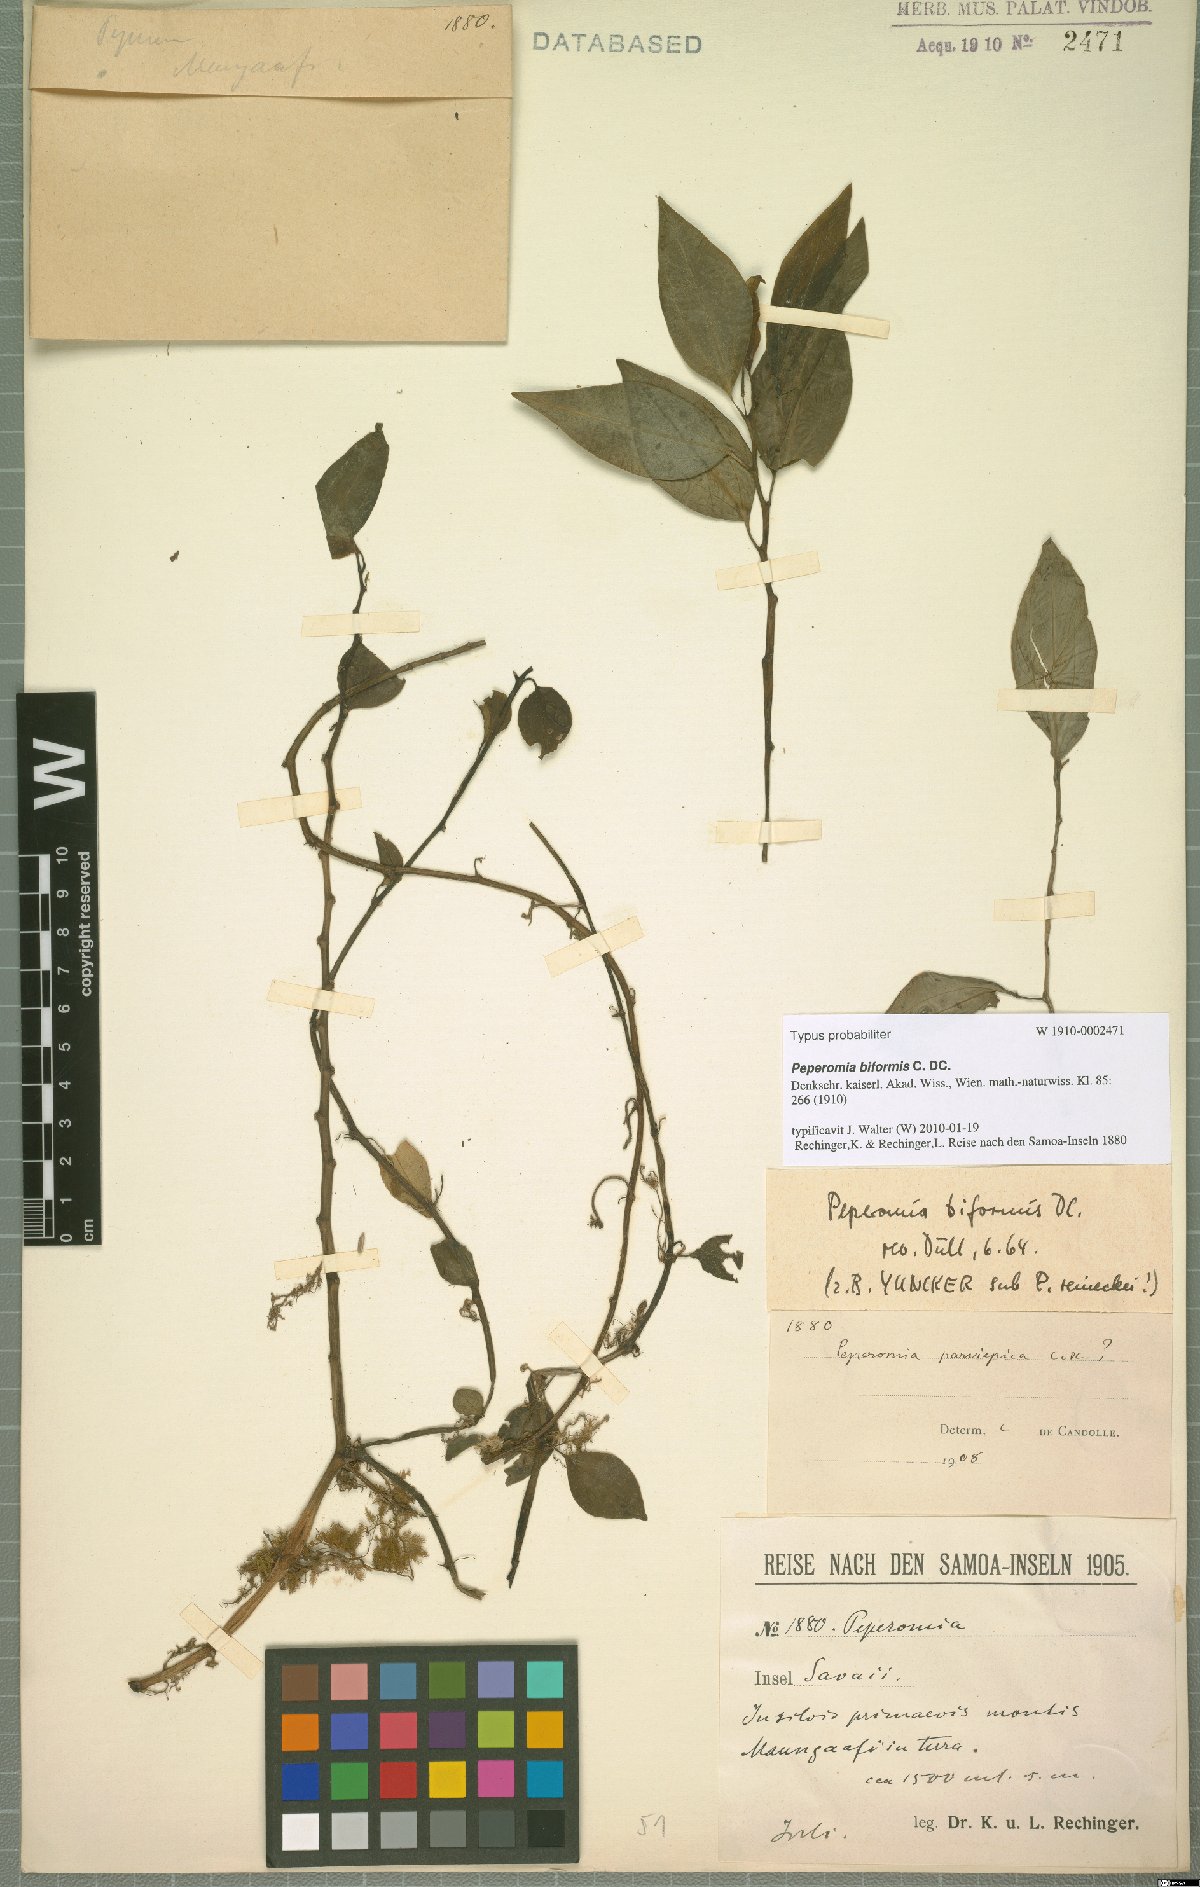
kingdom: Plantae
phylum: Tracheophyta
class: Magnoliopsida
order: Piperales
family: Piperaceae
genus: Peperomia
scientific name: Peperomia biformis
